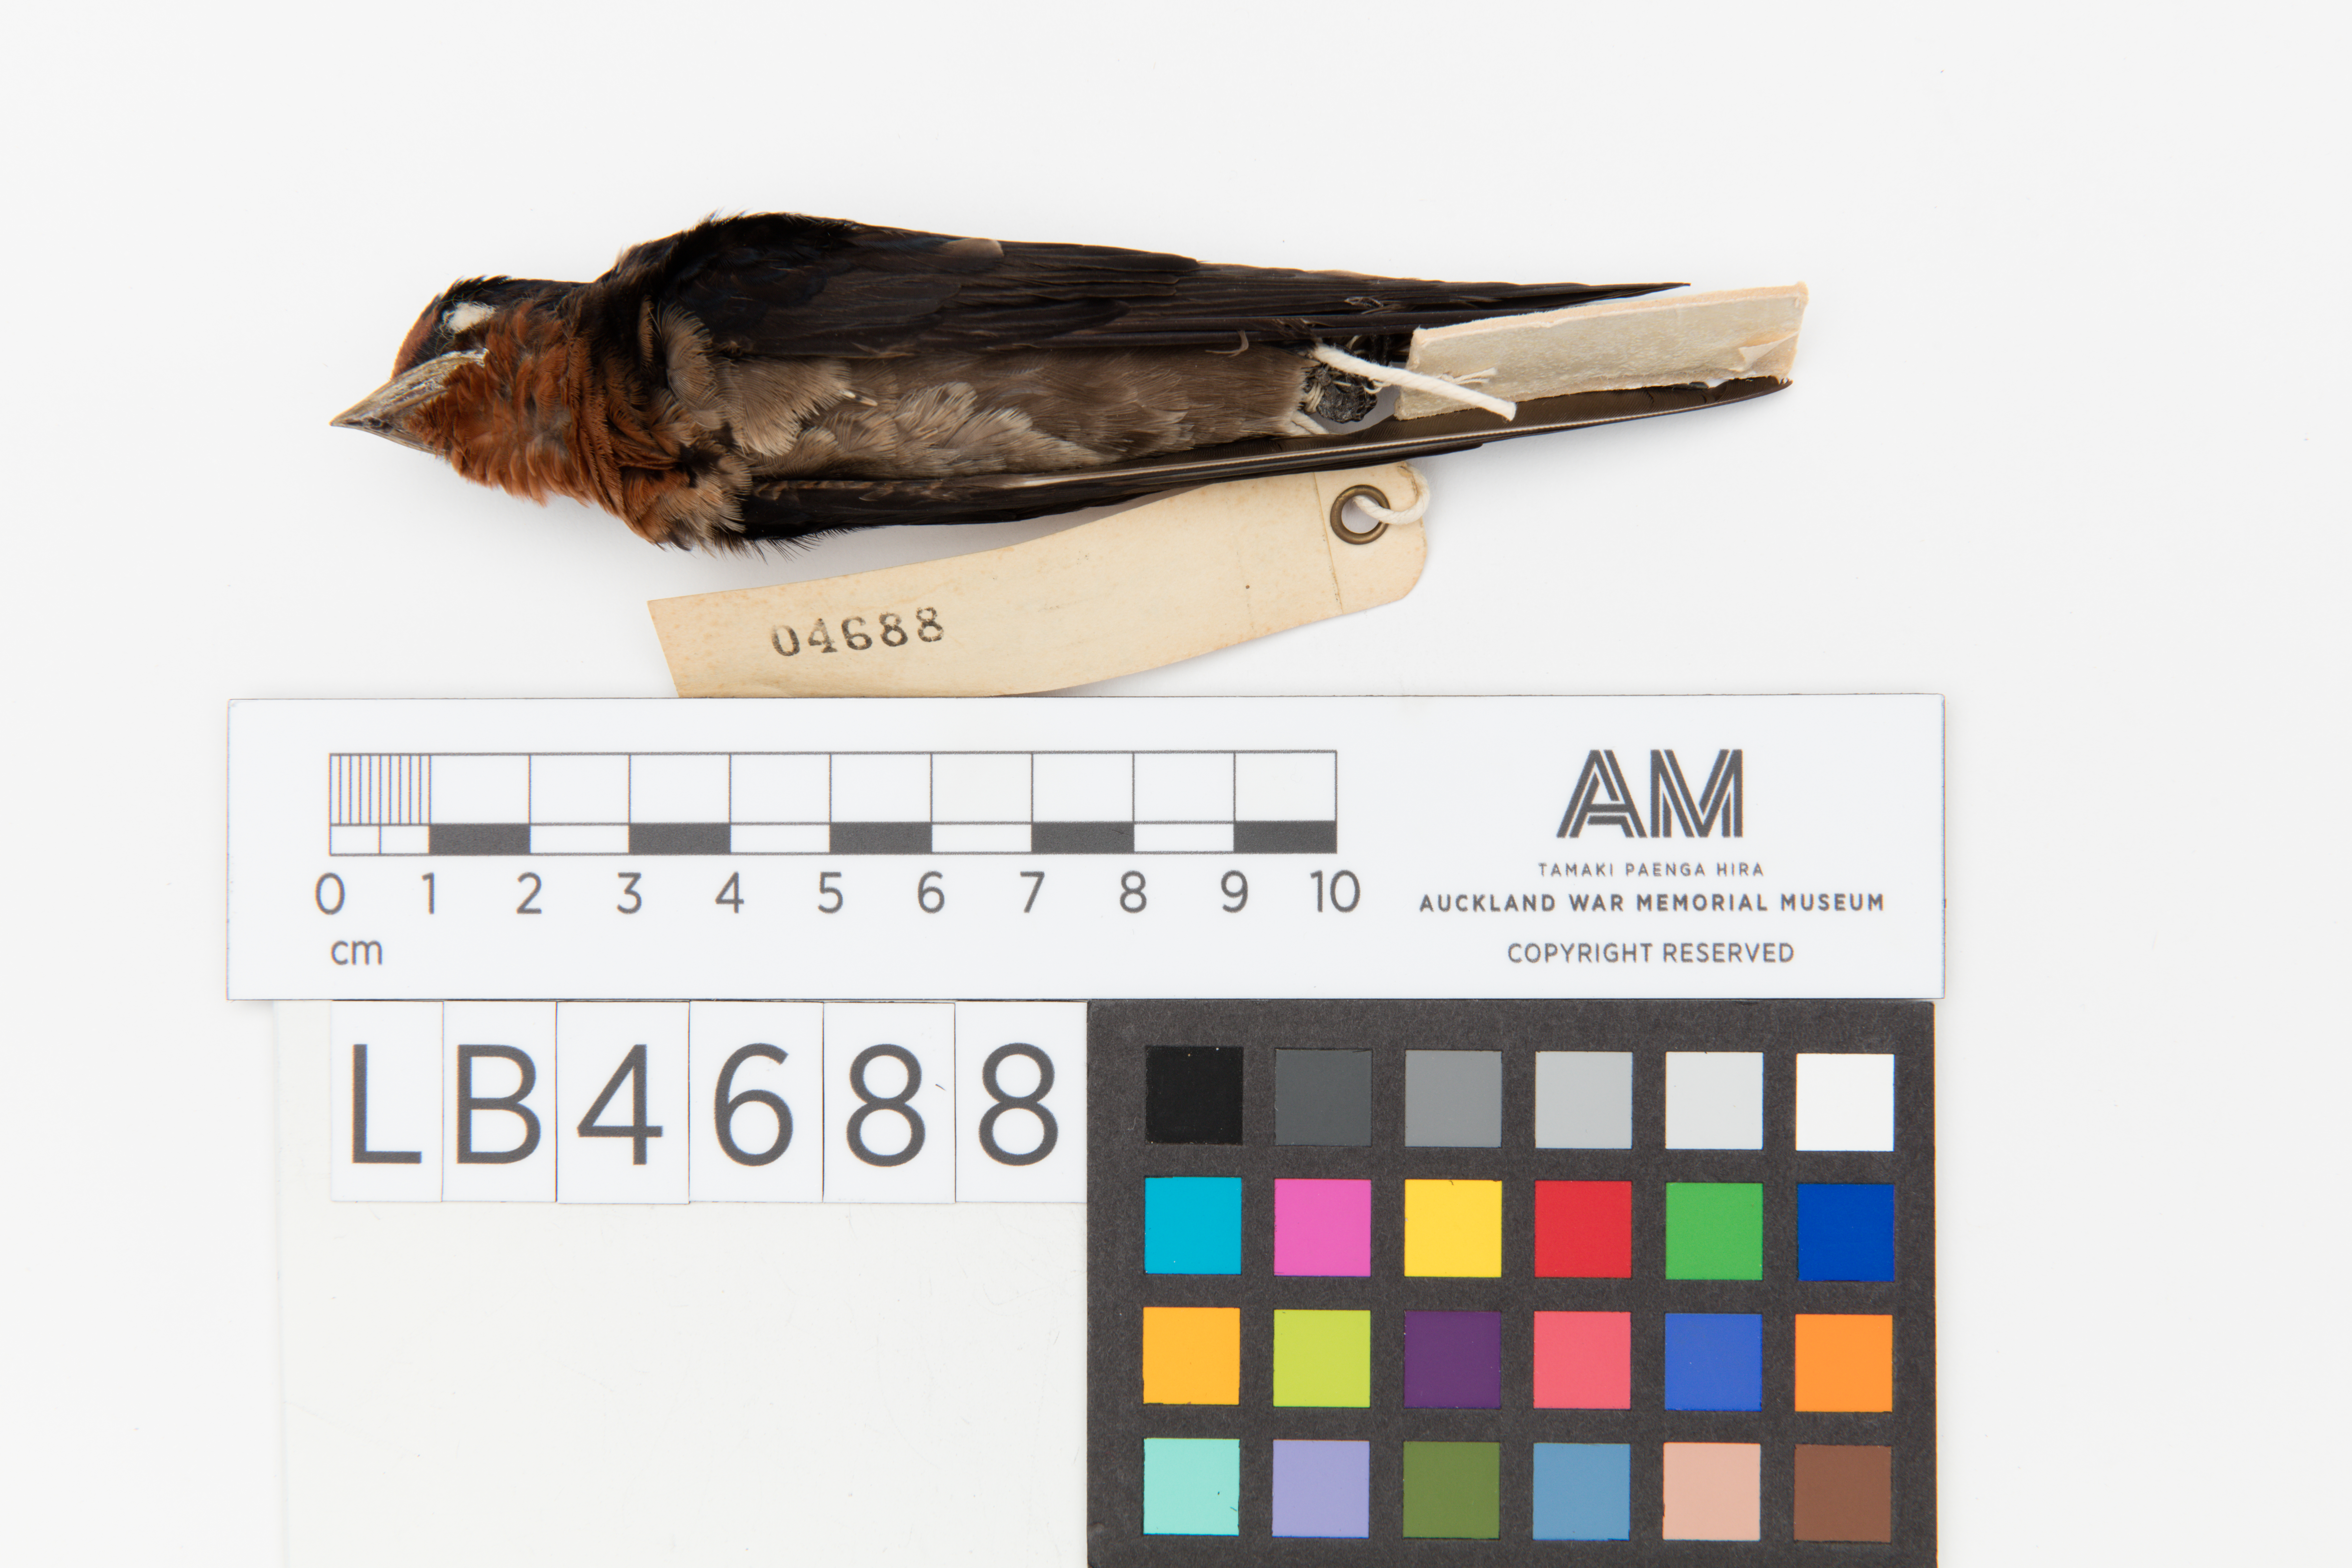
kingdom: Animalia
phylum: Chordata
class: Aves
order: Passeriformes
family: Hirundinidae
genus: Hirundo
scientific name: Hirundo tahitica
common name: Pacific swallow
